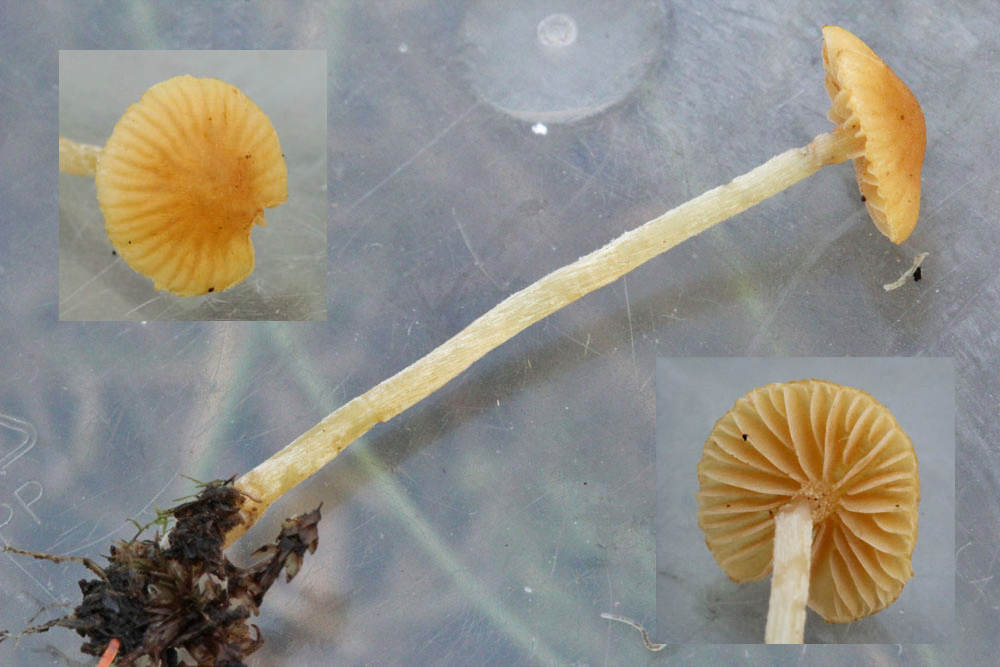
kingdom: Fungi
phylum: Basidiomycota
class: Agaricomycetes
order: Agaricales
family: Hymenogastraceae
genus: Galerina
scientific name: Galerina clavata
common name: kær-hjelmhat
